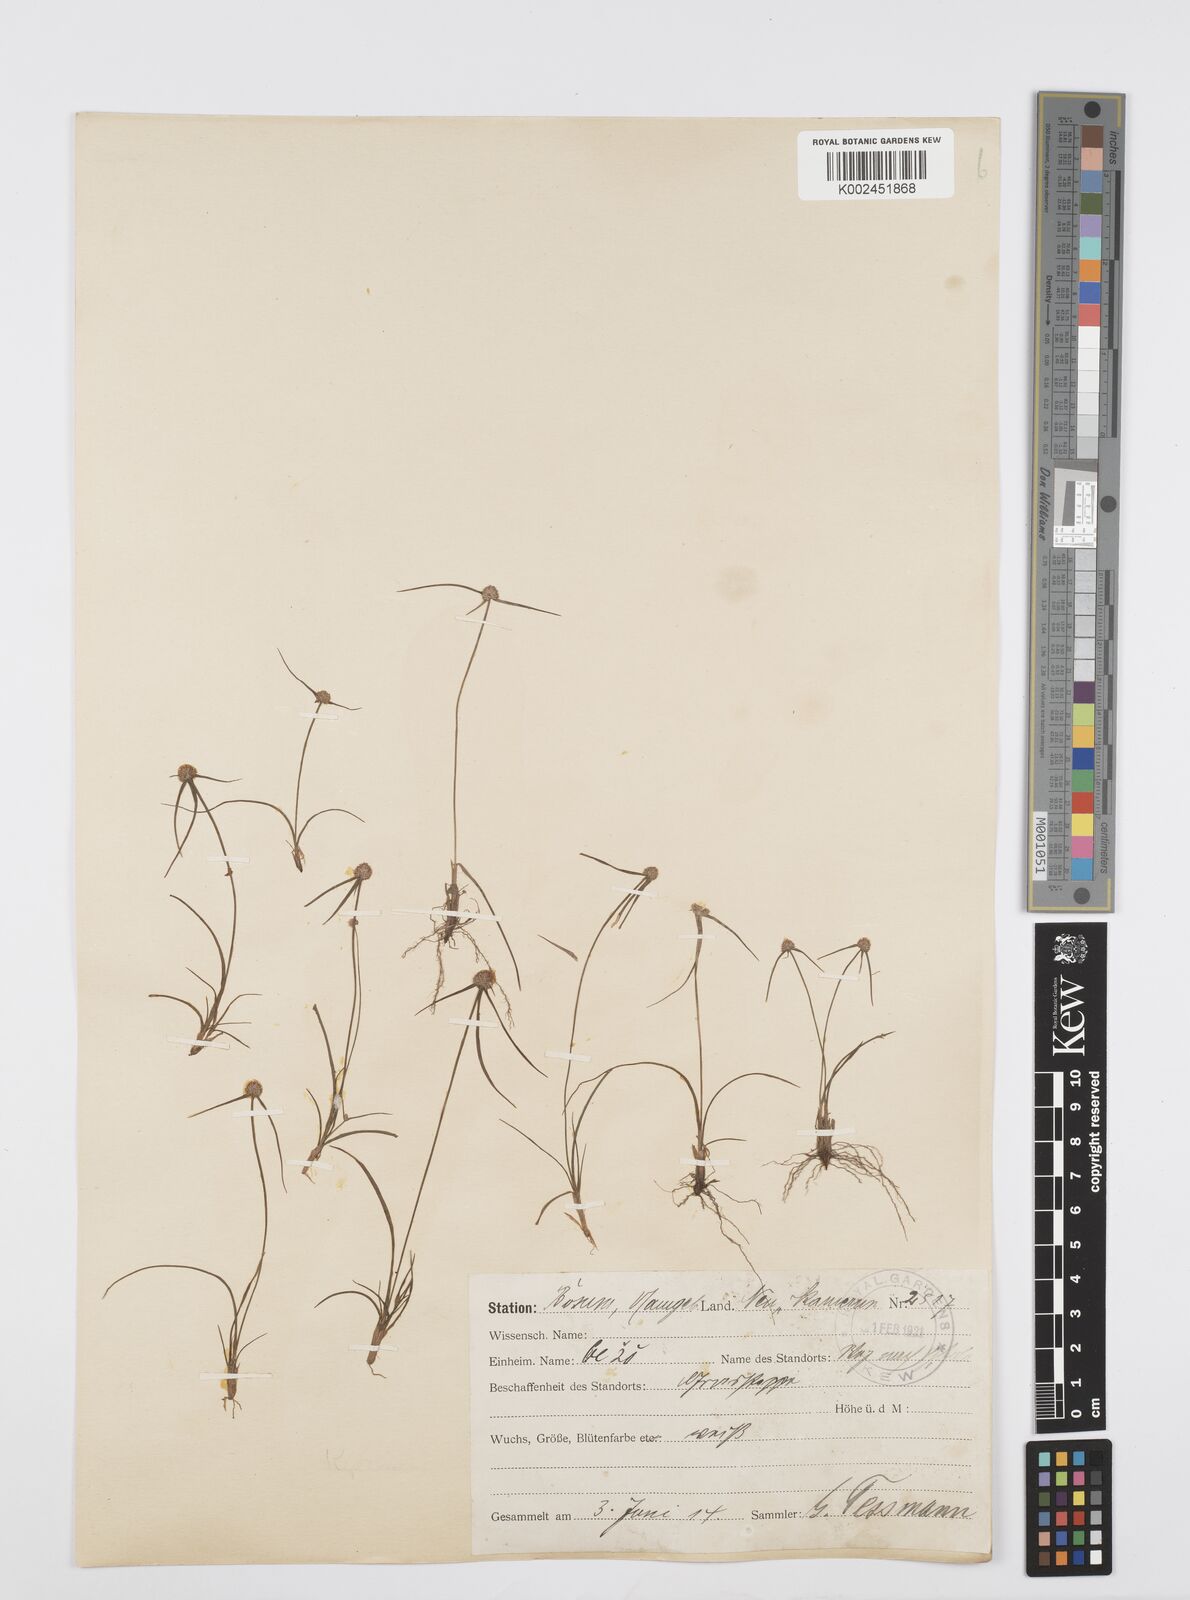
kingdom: Plantae
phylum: Tracheophyta
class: Liliopsida
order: Poales
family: Cyperaceae
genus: Cyperus
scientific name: Cyperus microcephalus
